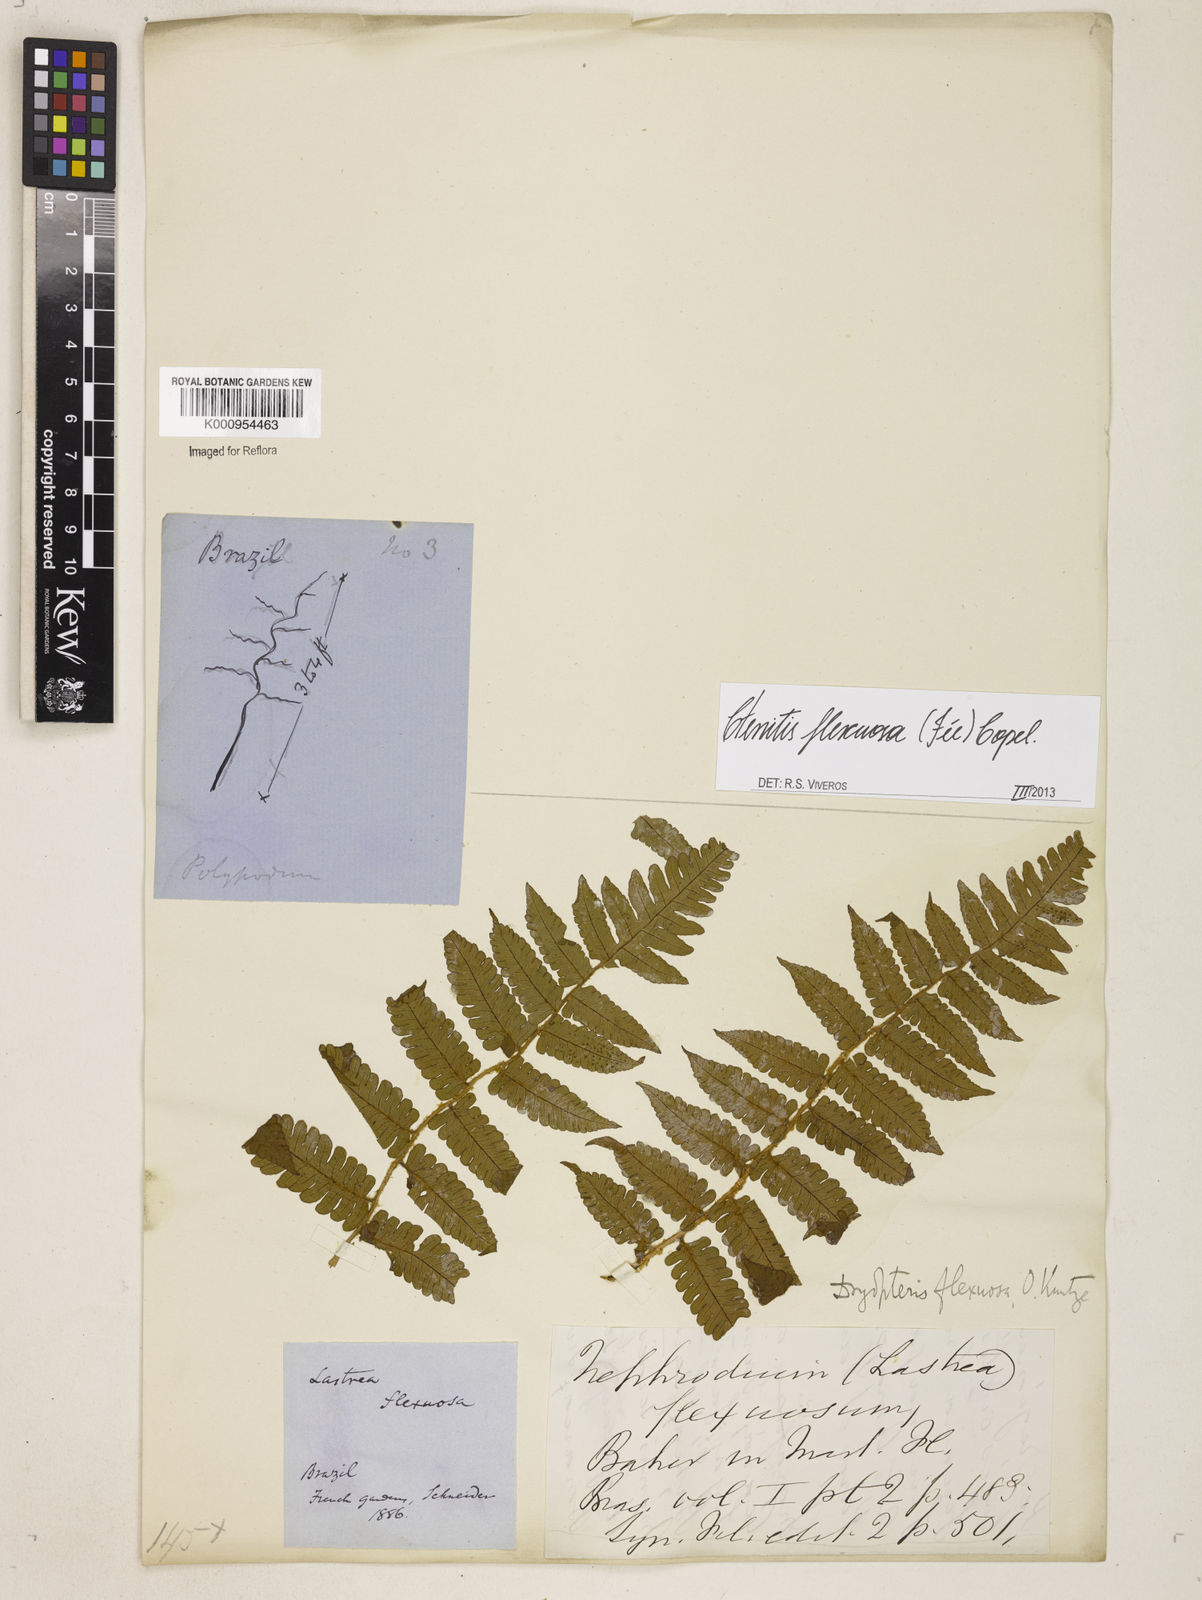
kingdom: Plantae
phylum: Tracheophyta
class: Polypodiopsida
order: Polypodiales
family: Dryopteridaceae
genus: Ctenitis
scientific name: Ctenitis
